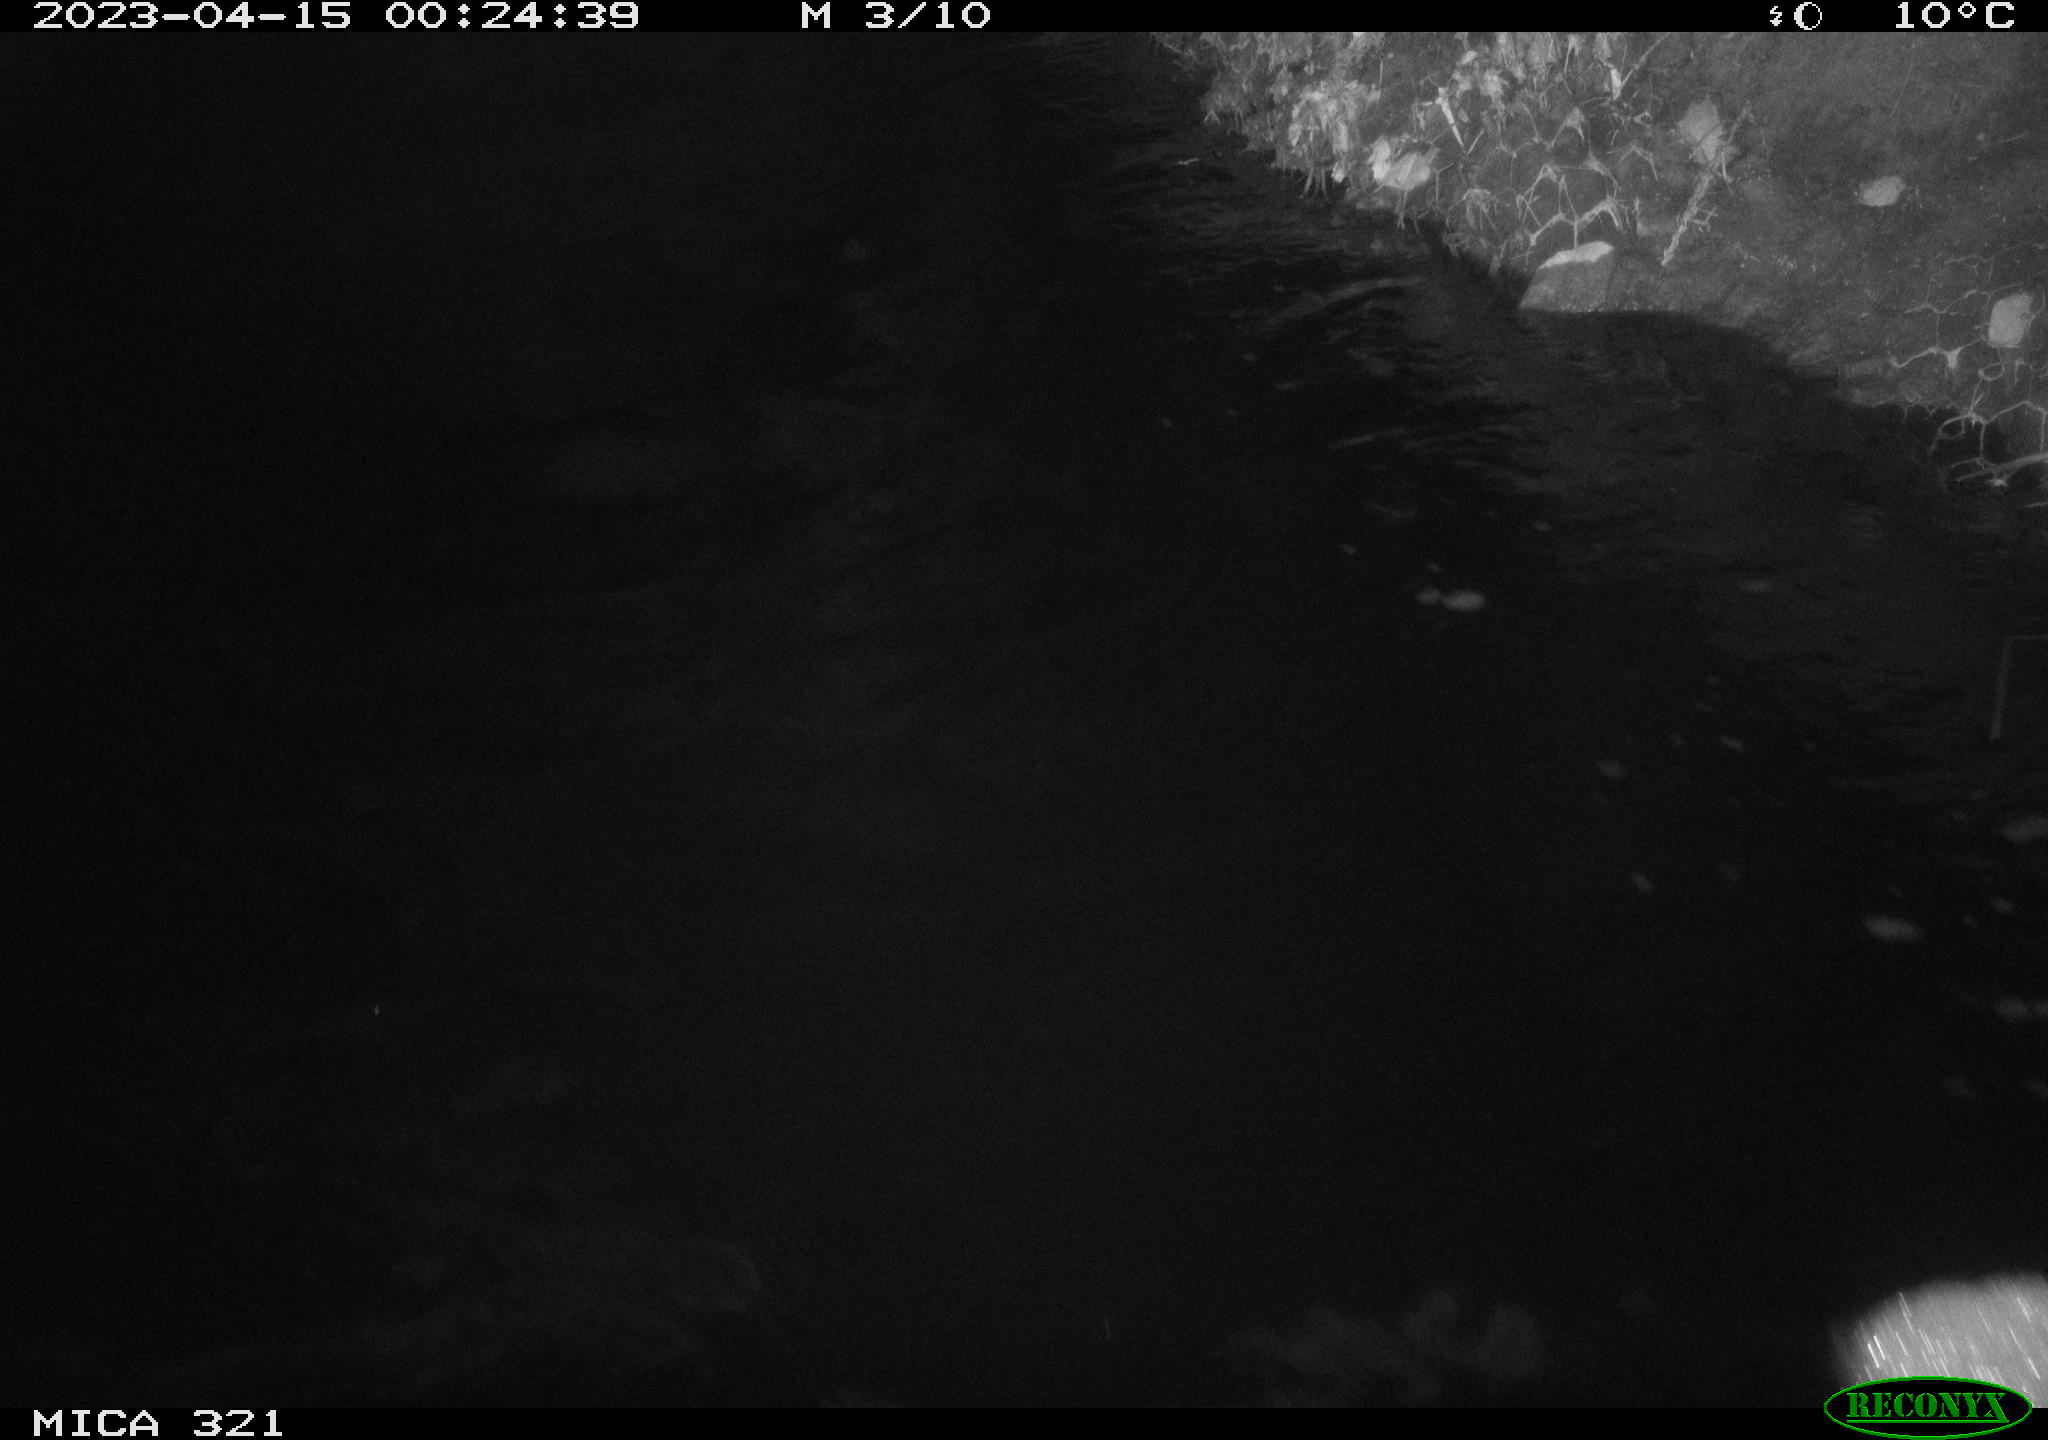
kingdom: Animalia
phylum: Chordata
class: Mammalia
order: Rodentia
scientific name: Rodentia
